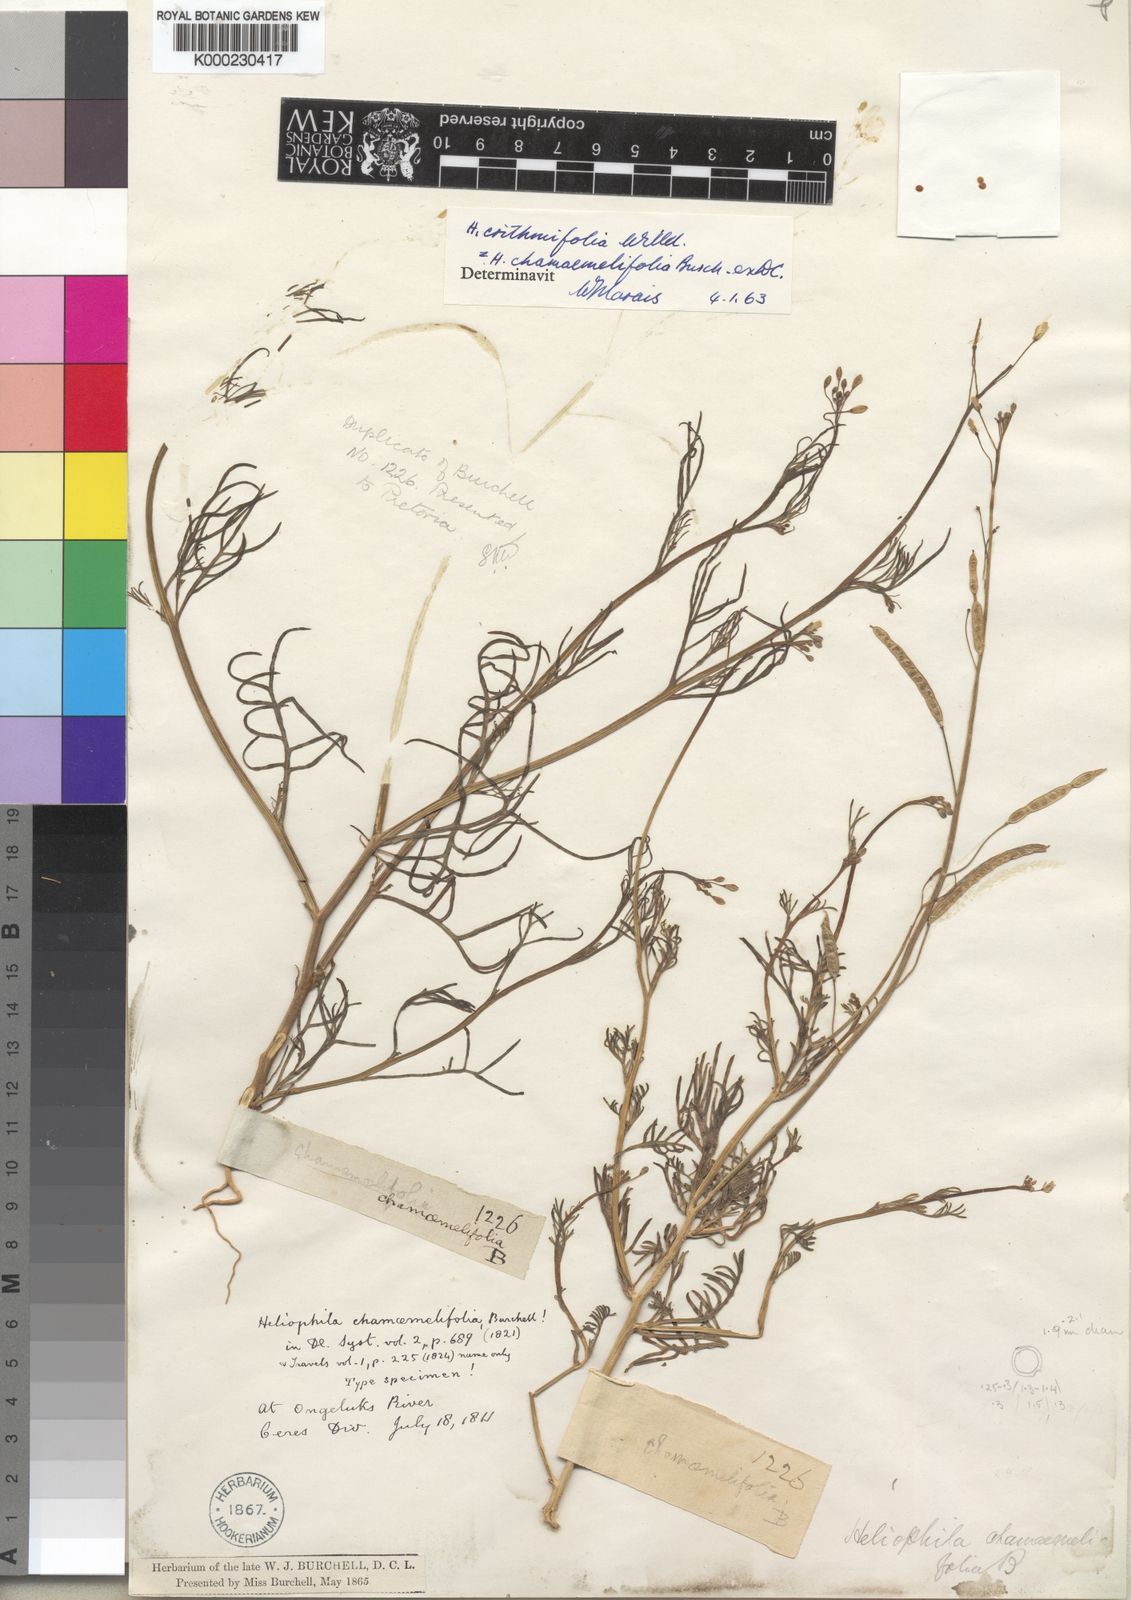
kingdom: Plantae
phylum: Tracheophyta
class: Magnoliopsida
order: Brassicales
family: Brassicaceae
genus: Heliophila
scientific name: Heliophila crithmifolia
